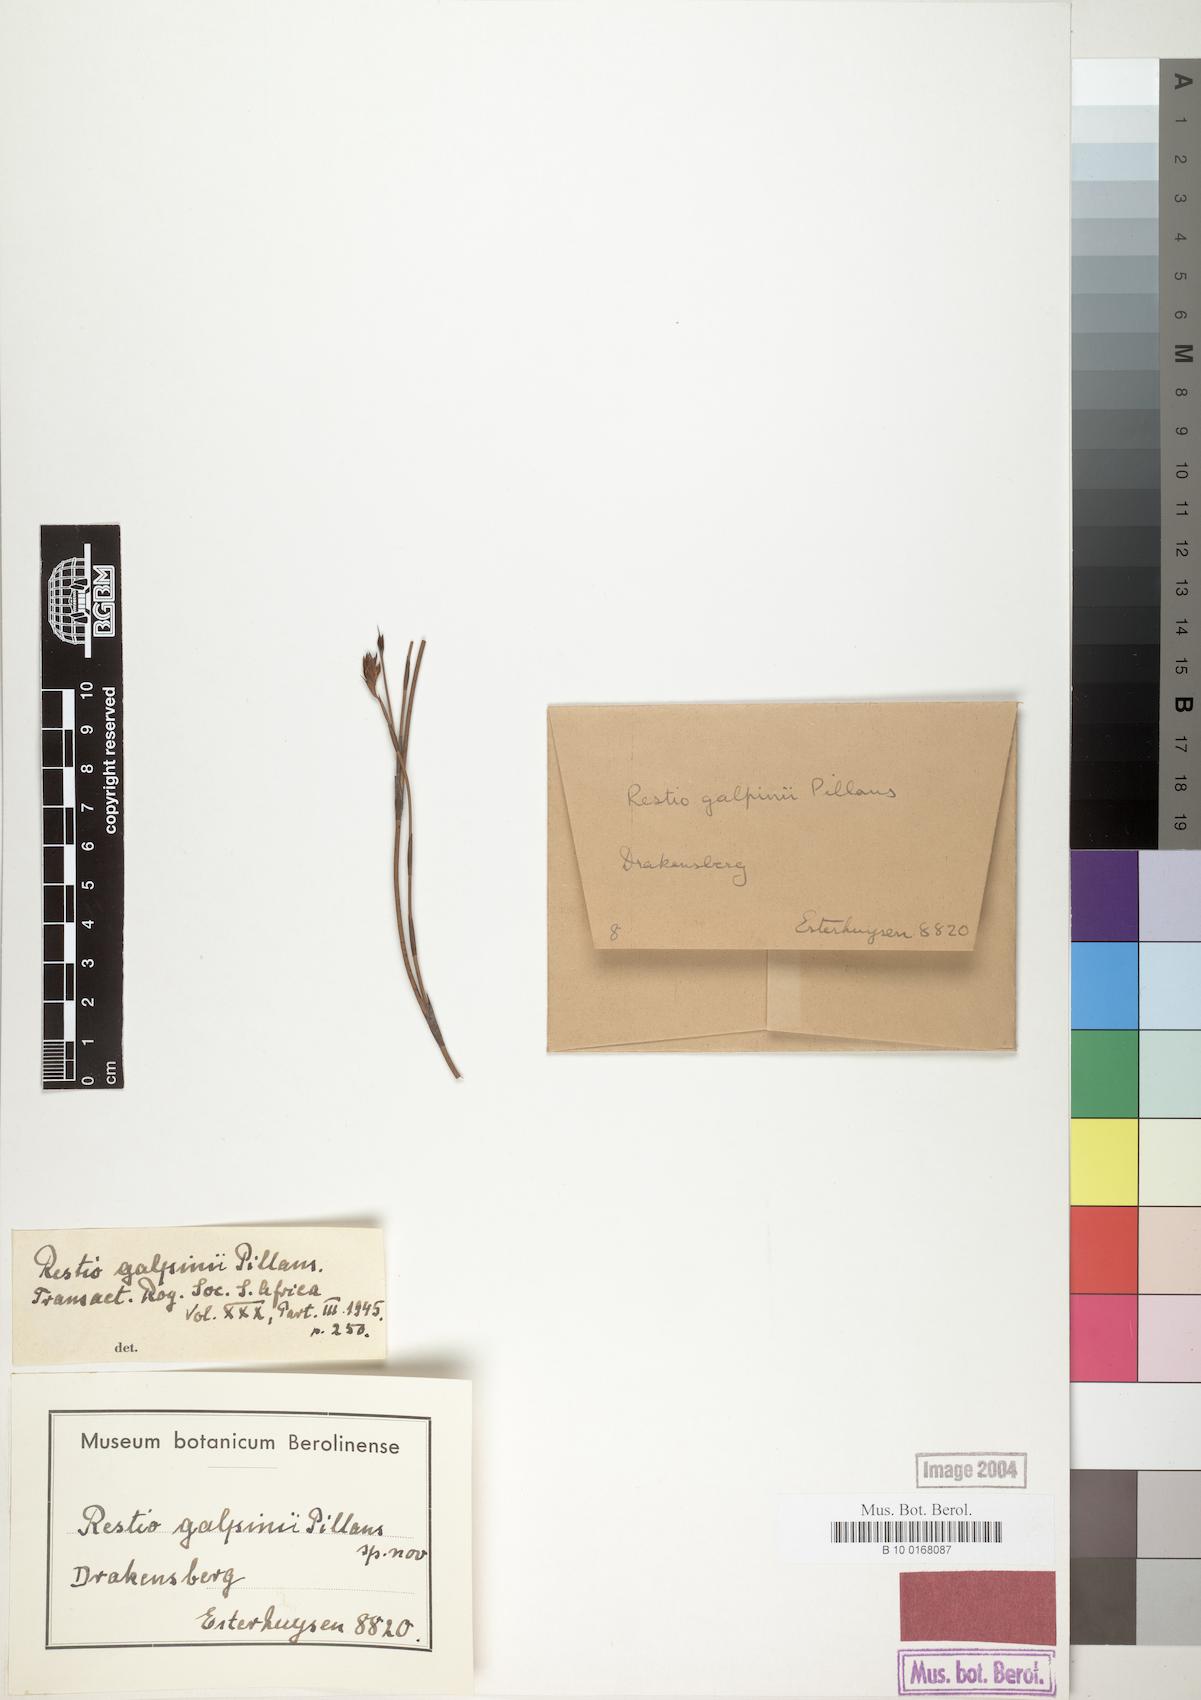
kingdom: Plantae
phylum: Tracheophyta
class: Liliopsida
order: Poales
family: Restionaceae
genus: Platycaulos
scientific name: Platycaulos galpinii
